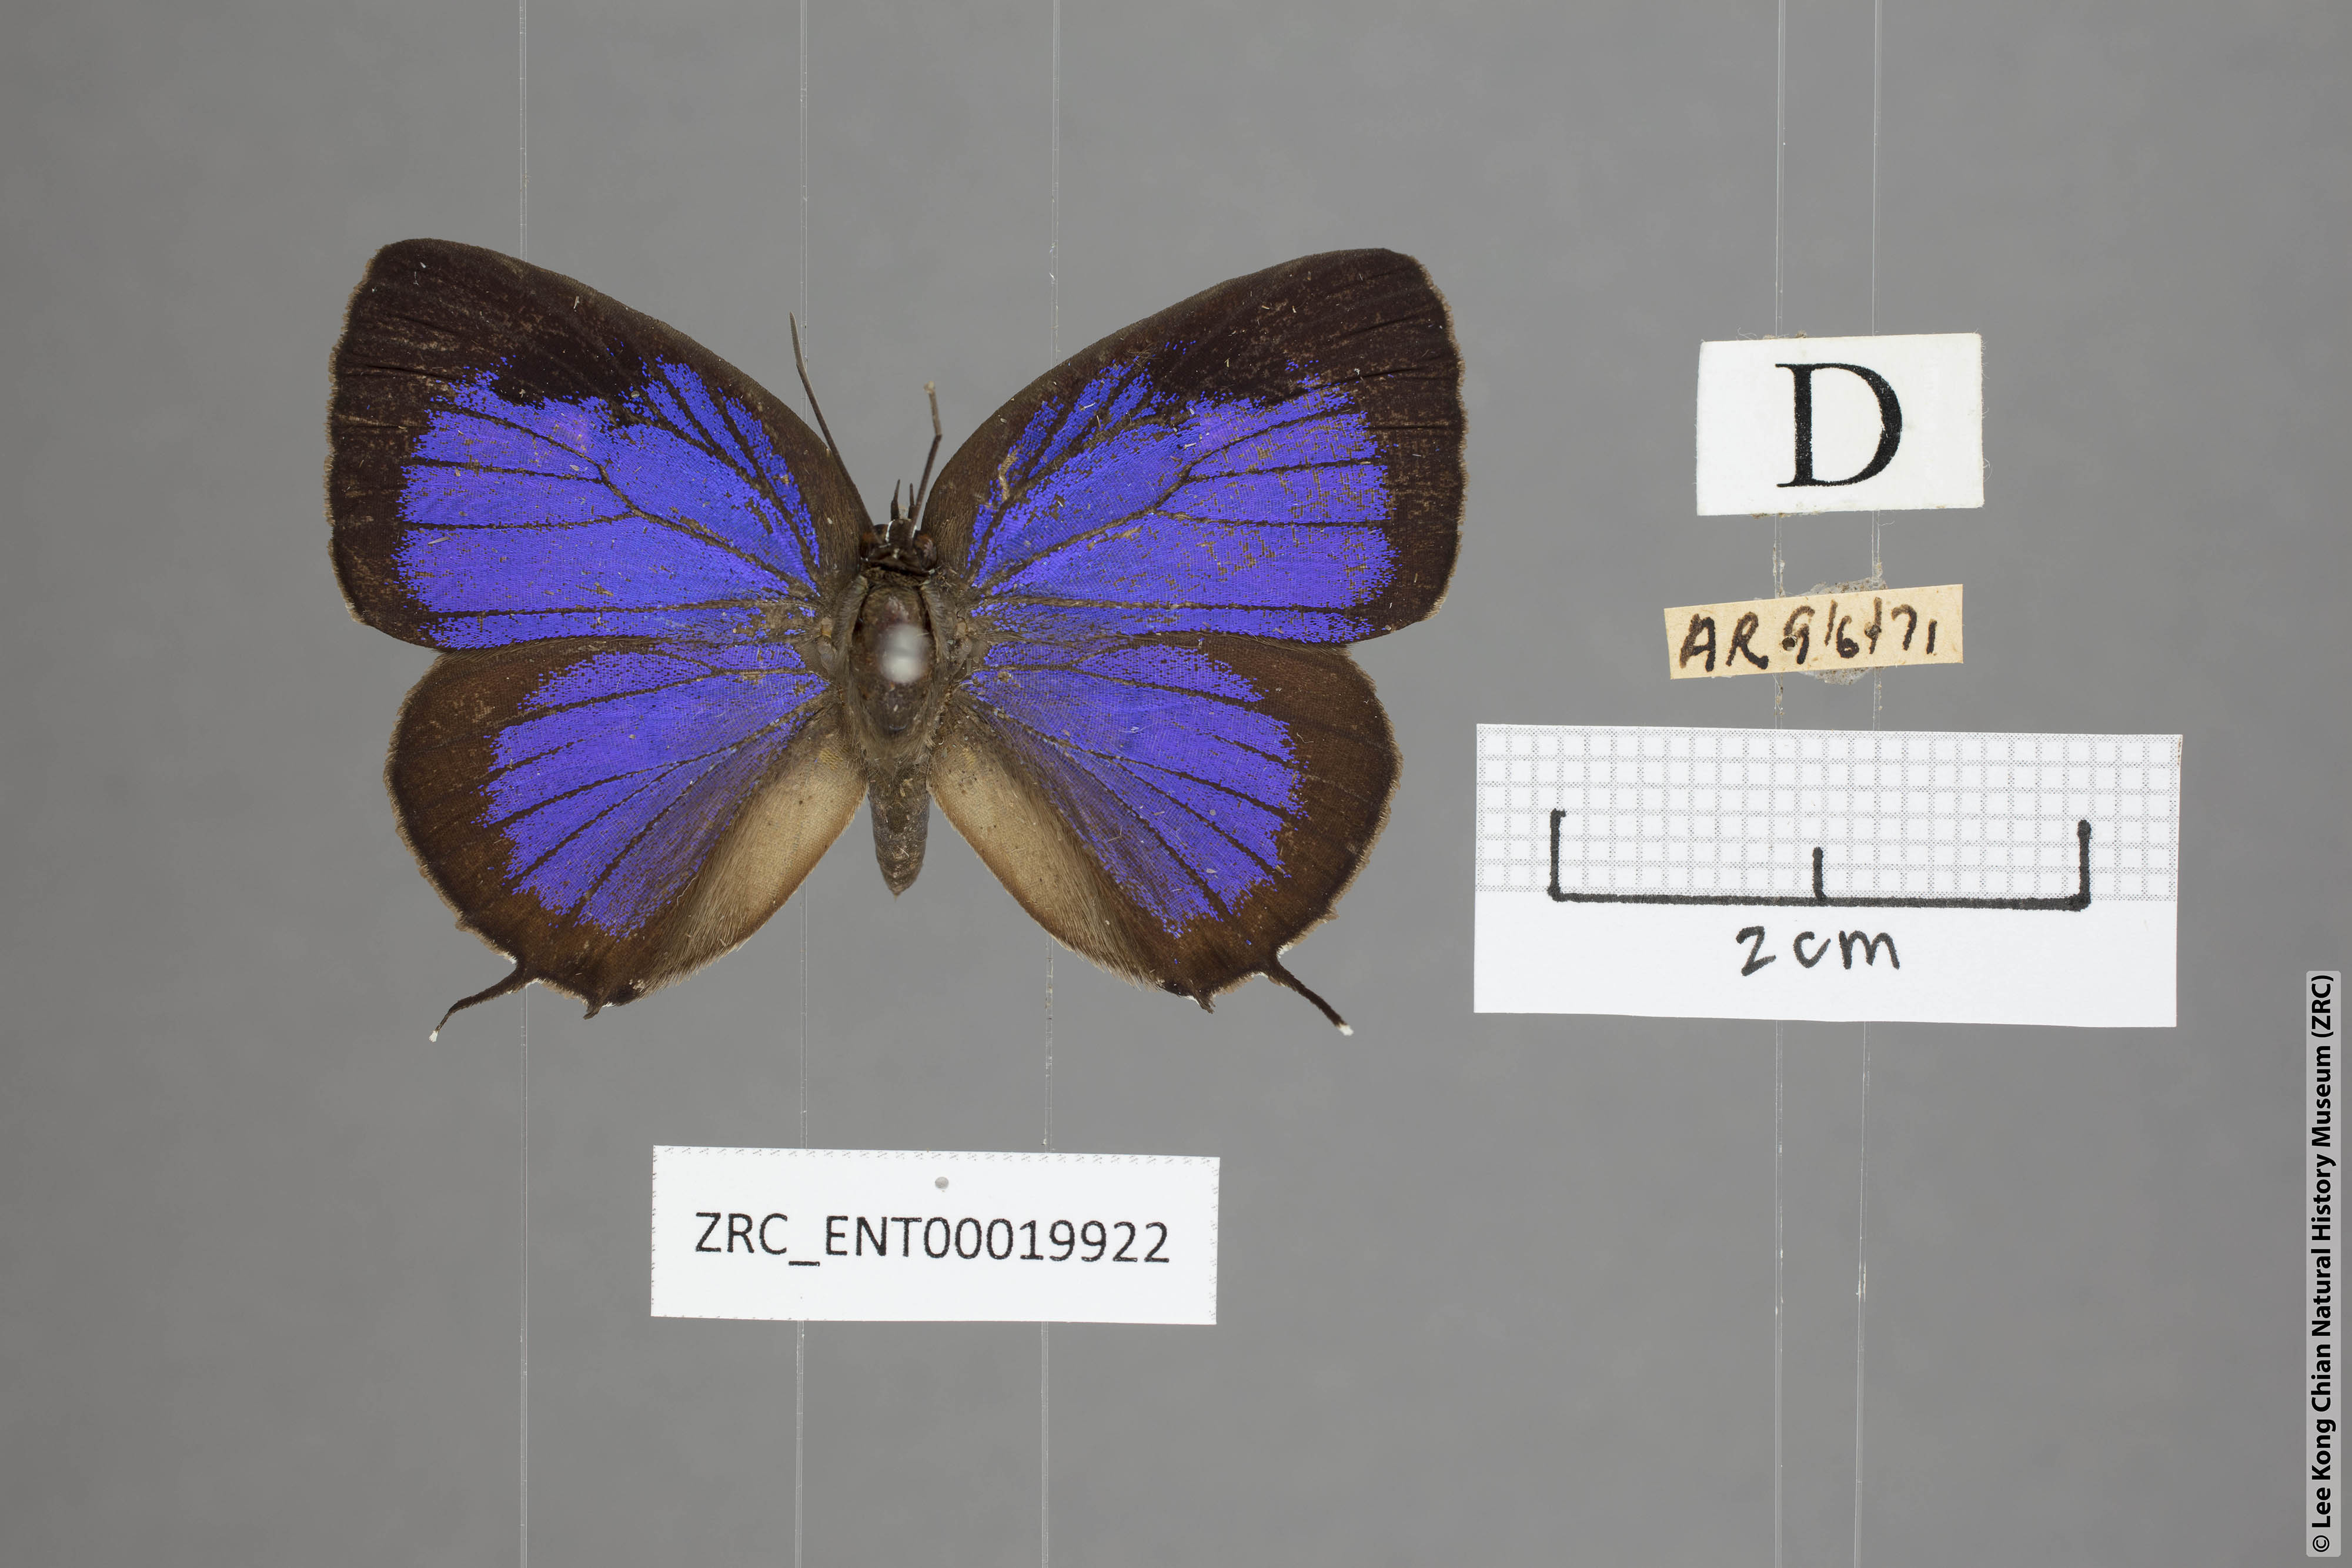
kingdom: Animalia
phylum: Arthropoda
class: Insecta
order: Lepidoptera
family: Lycaenidae
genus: Arhopala
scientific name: Arhopala vihara
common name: Large spotted oakblue
